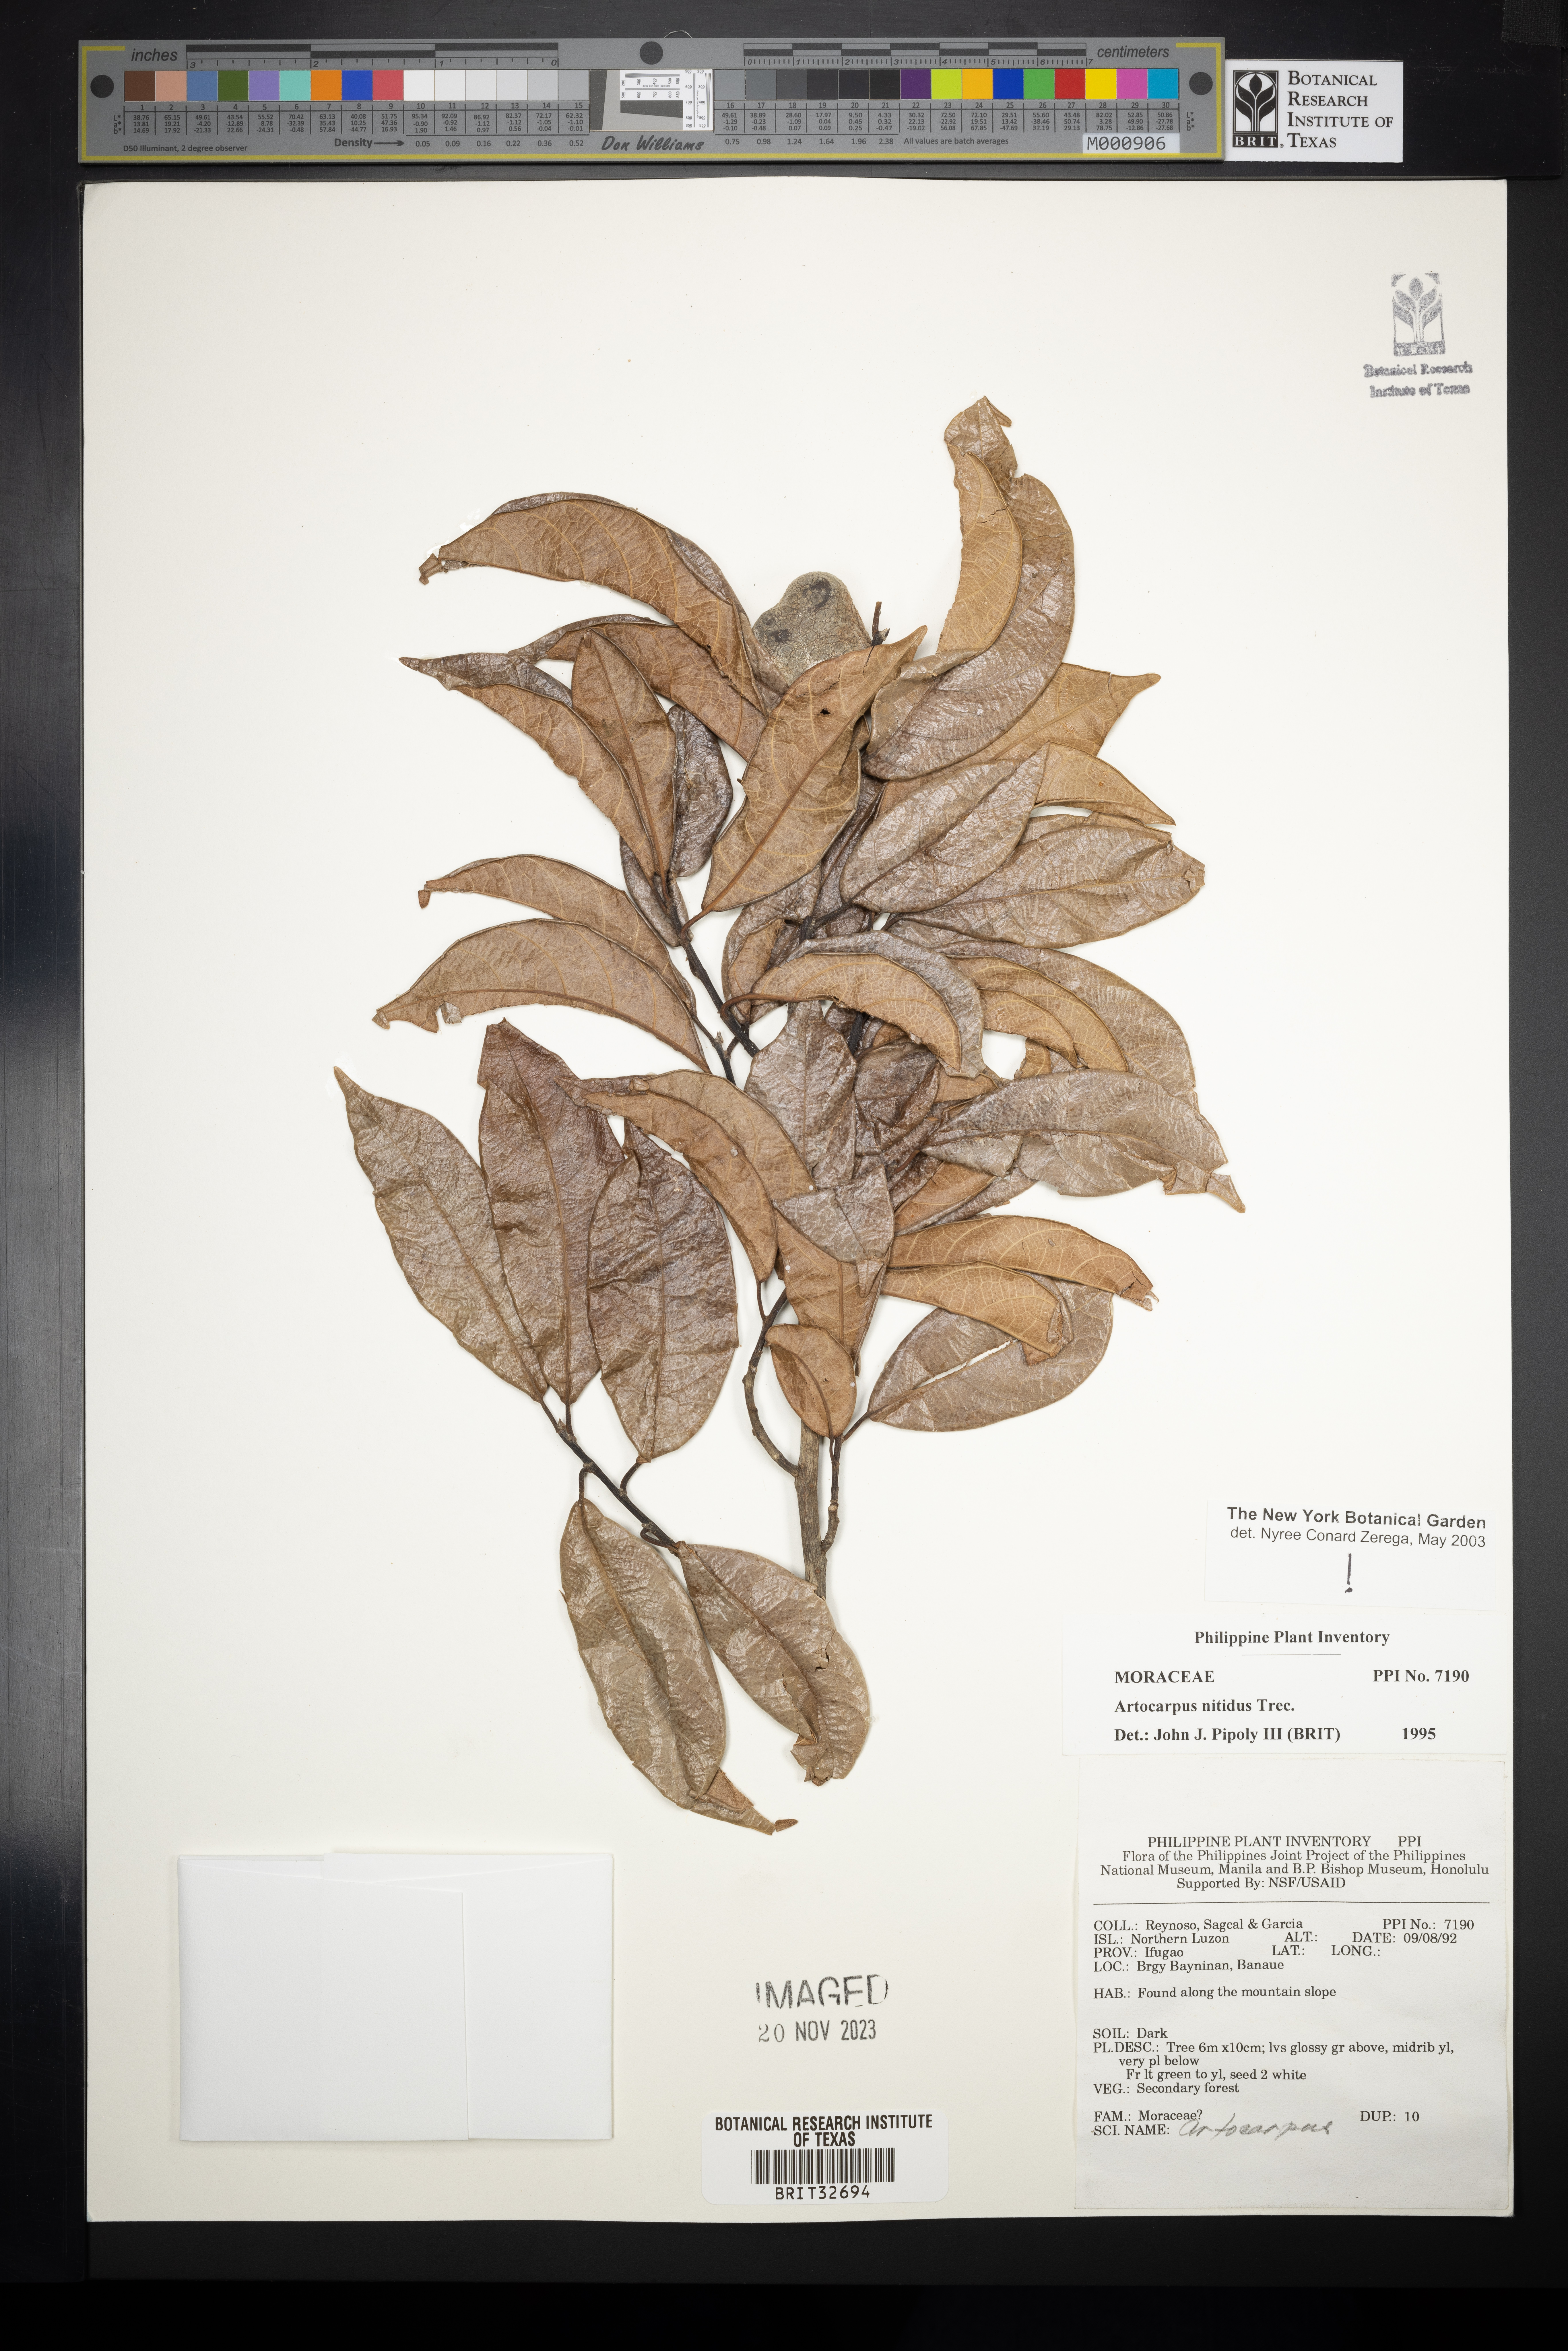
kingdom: Plantae
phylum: Tracheophyta
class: Magnoliopsida
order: Rosales
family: Moraceae
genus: Artocarpus
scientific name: Artocarpus lamellosus
